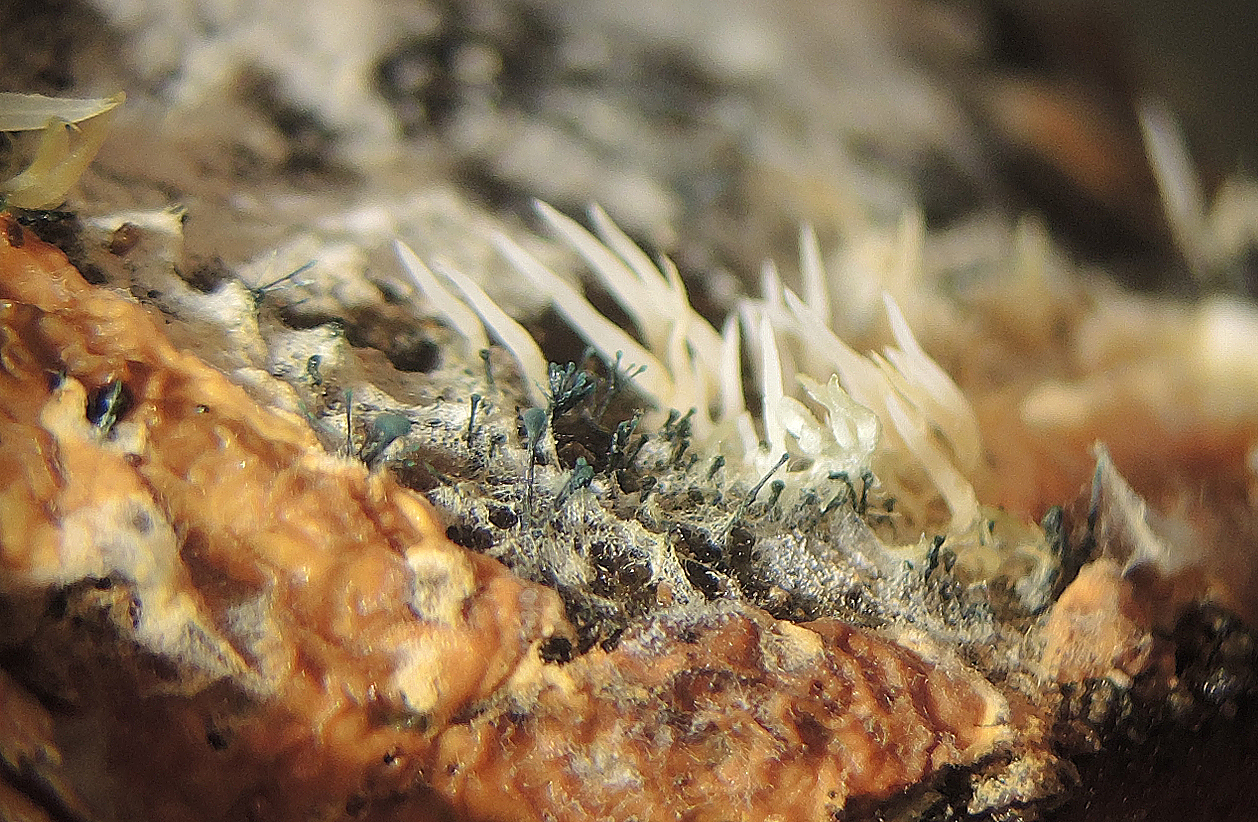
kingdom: Fungi
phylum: Ascomycota
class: Leotiomycetes
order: Leotiales
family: Tympanidaceae
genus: Dendrostilbella
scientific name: Dendrostilbella smaragdina
